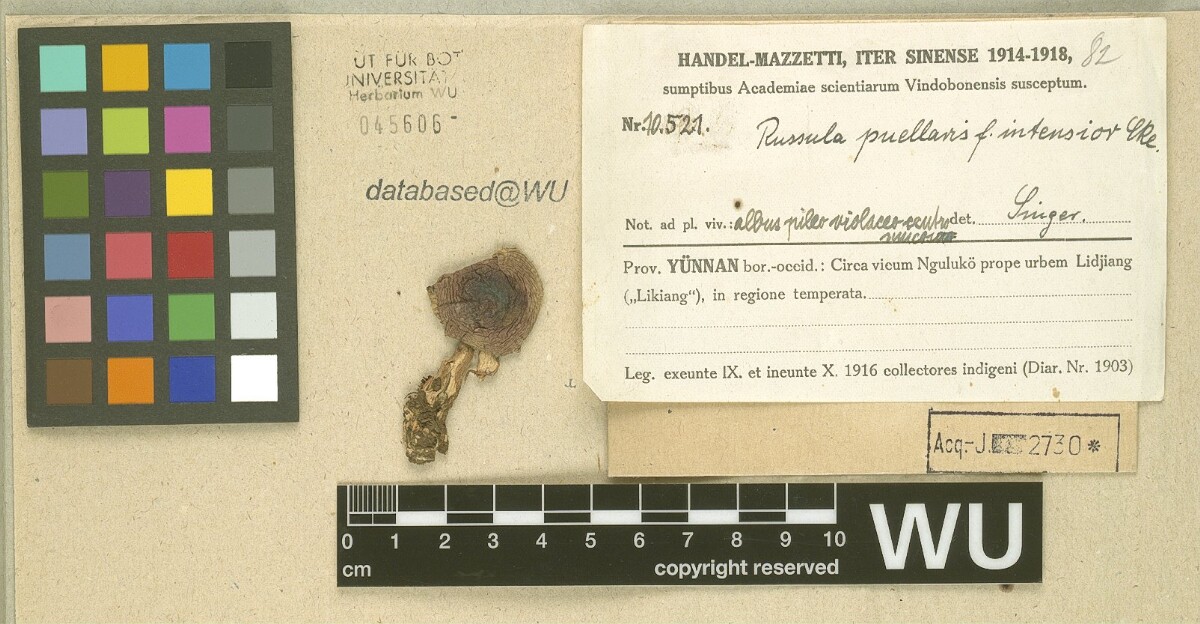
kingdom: Fungi
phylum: Basidiomycota
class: Agaricomycetes
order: Russulales
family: Russulaceae
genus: Russula
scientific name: Russula puellaris
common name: Yellowing brittlegill
